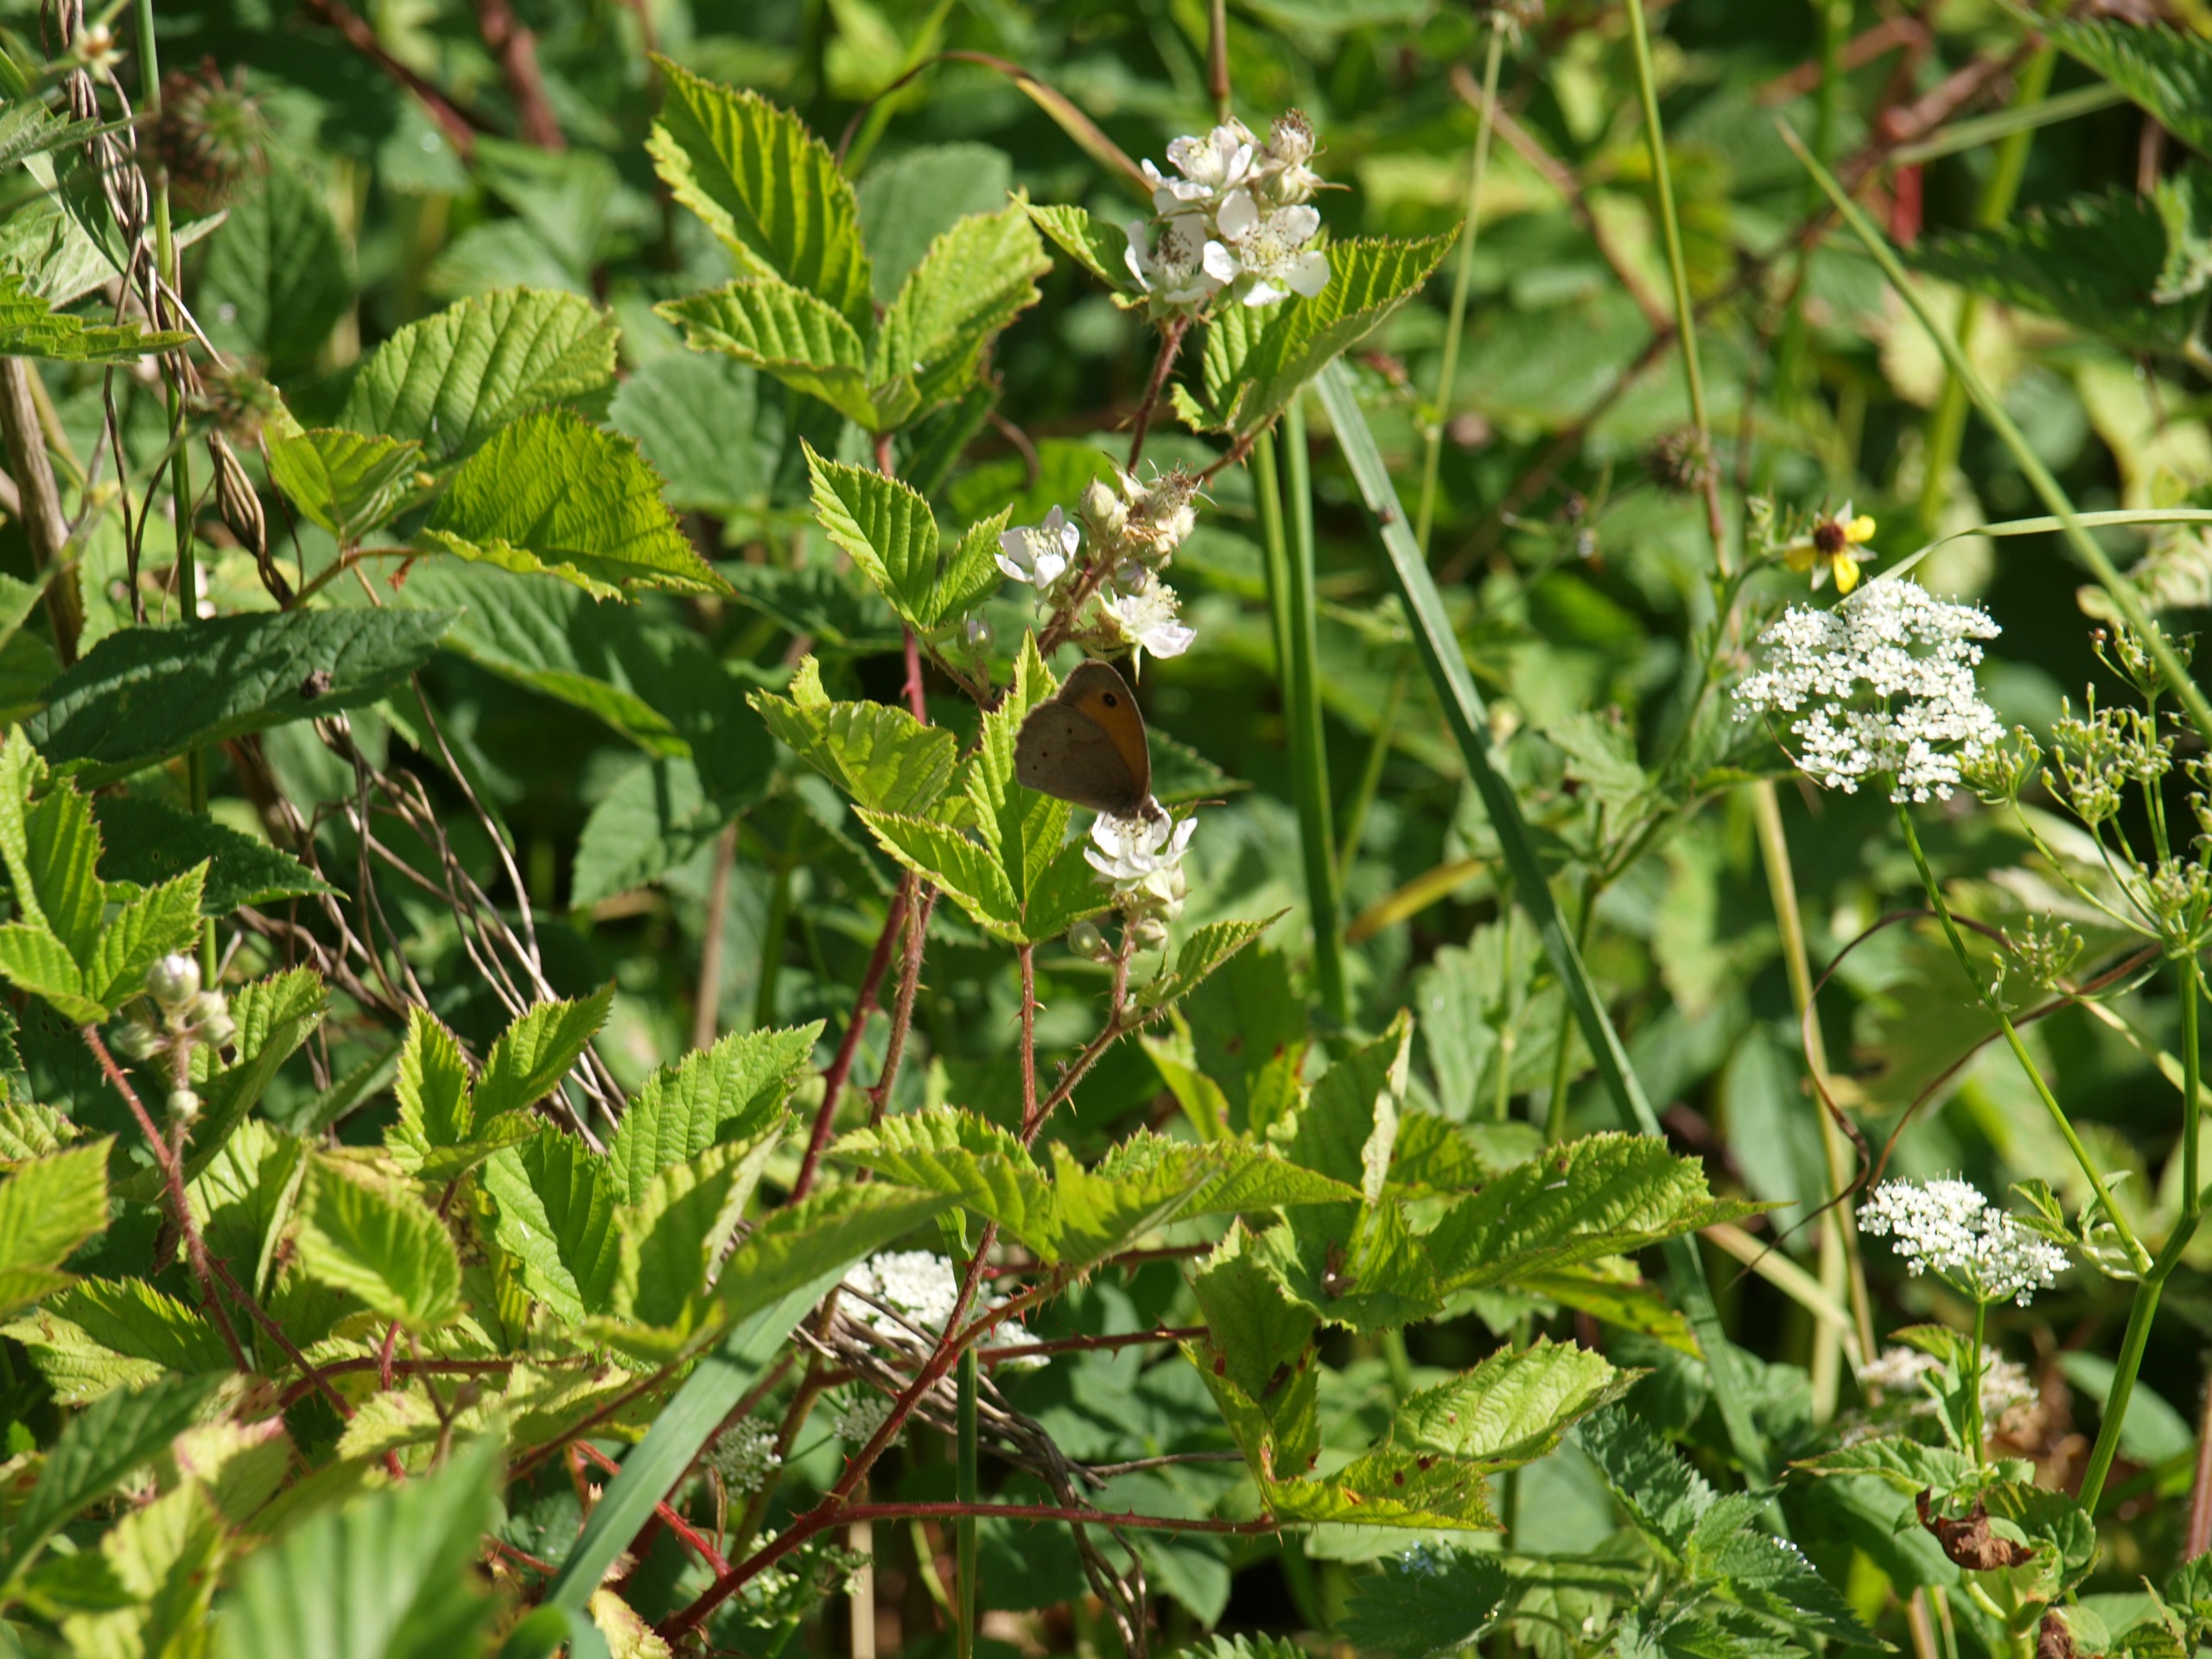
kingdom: Animalia
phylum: Arthropoda
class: Insecta
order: Lepidoptera
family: Nymphalidae
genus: Maniola
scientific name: Maniola jurtina
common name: Græsrandøje
